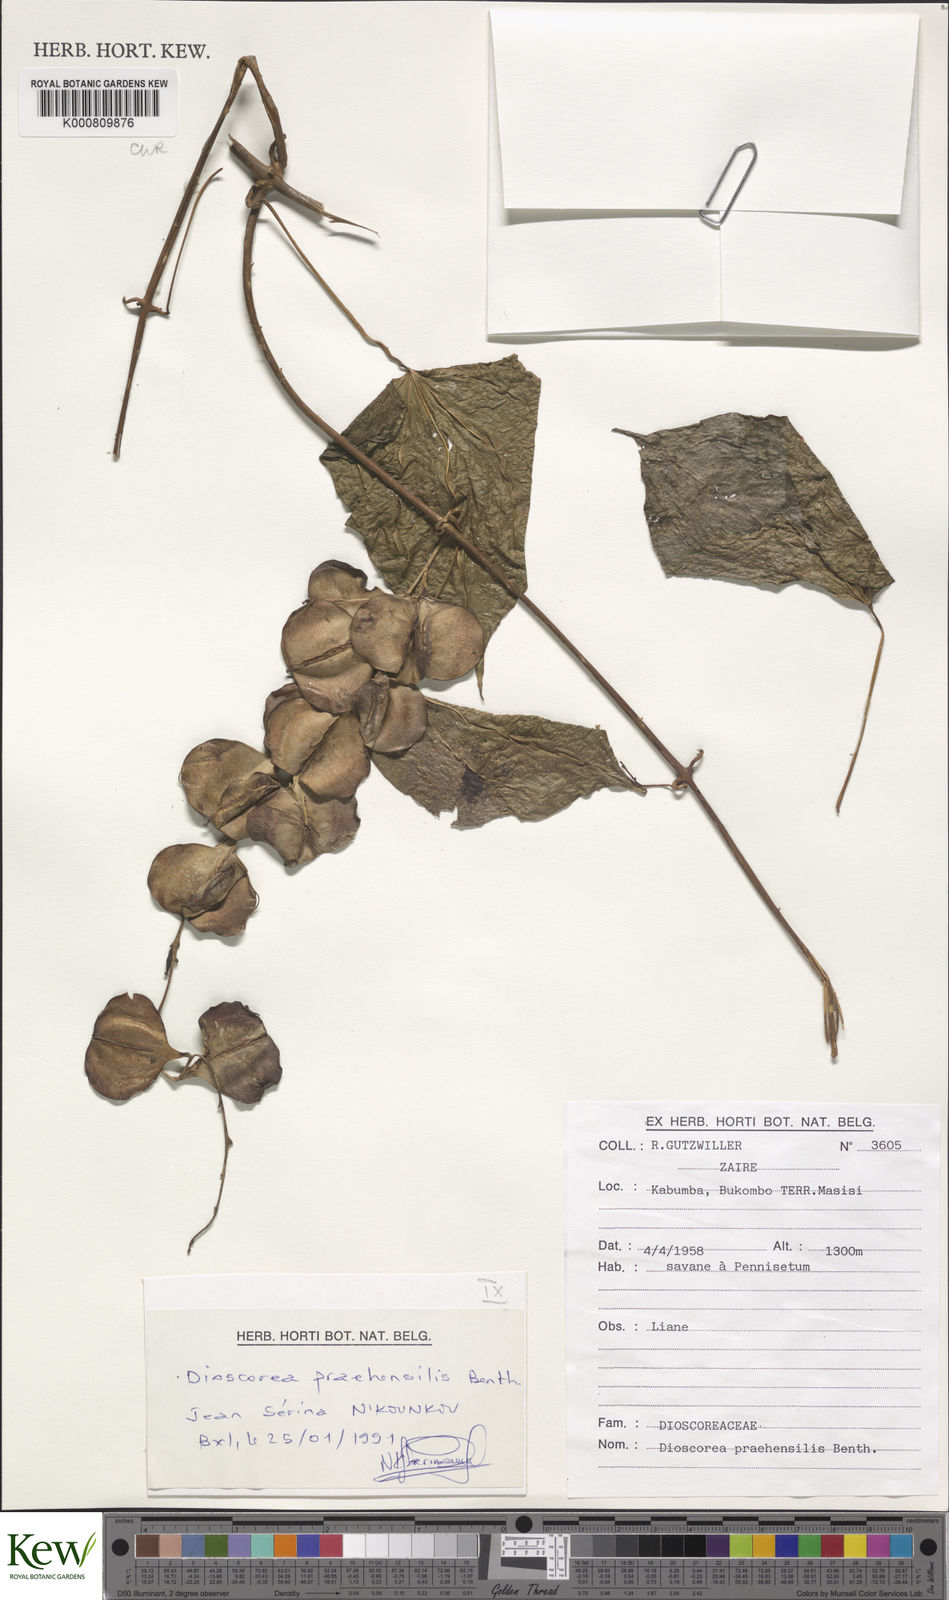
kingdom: Plantae
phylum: Tracheophyta
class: Liliopsida
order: Dioscoreales
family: Dioscoreaceae
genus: Dioscorea
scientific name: Dioscorea praehensilis
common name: Bush yam
